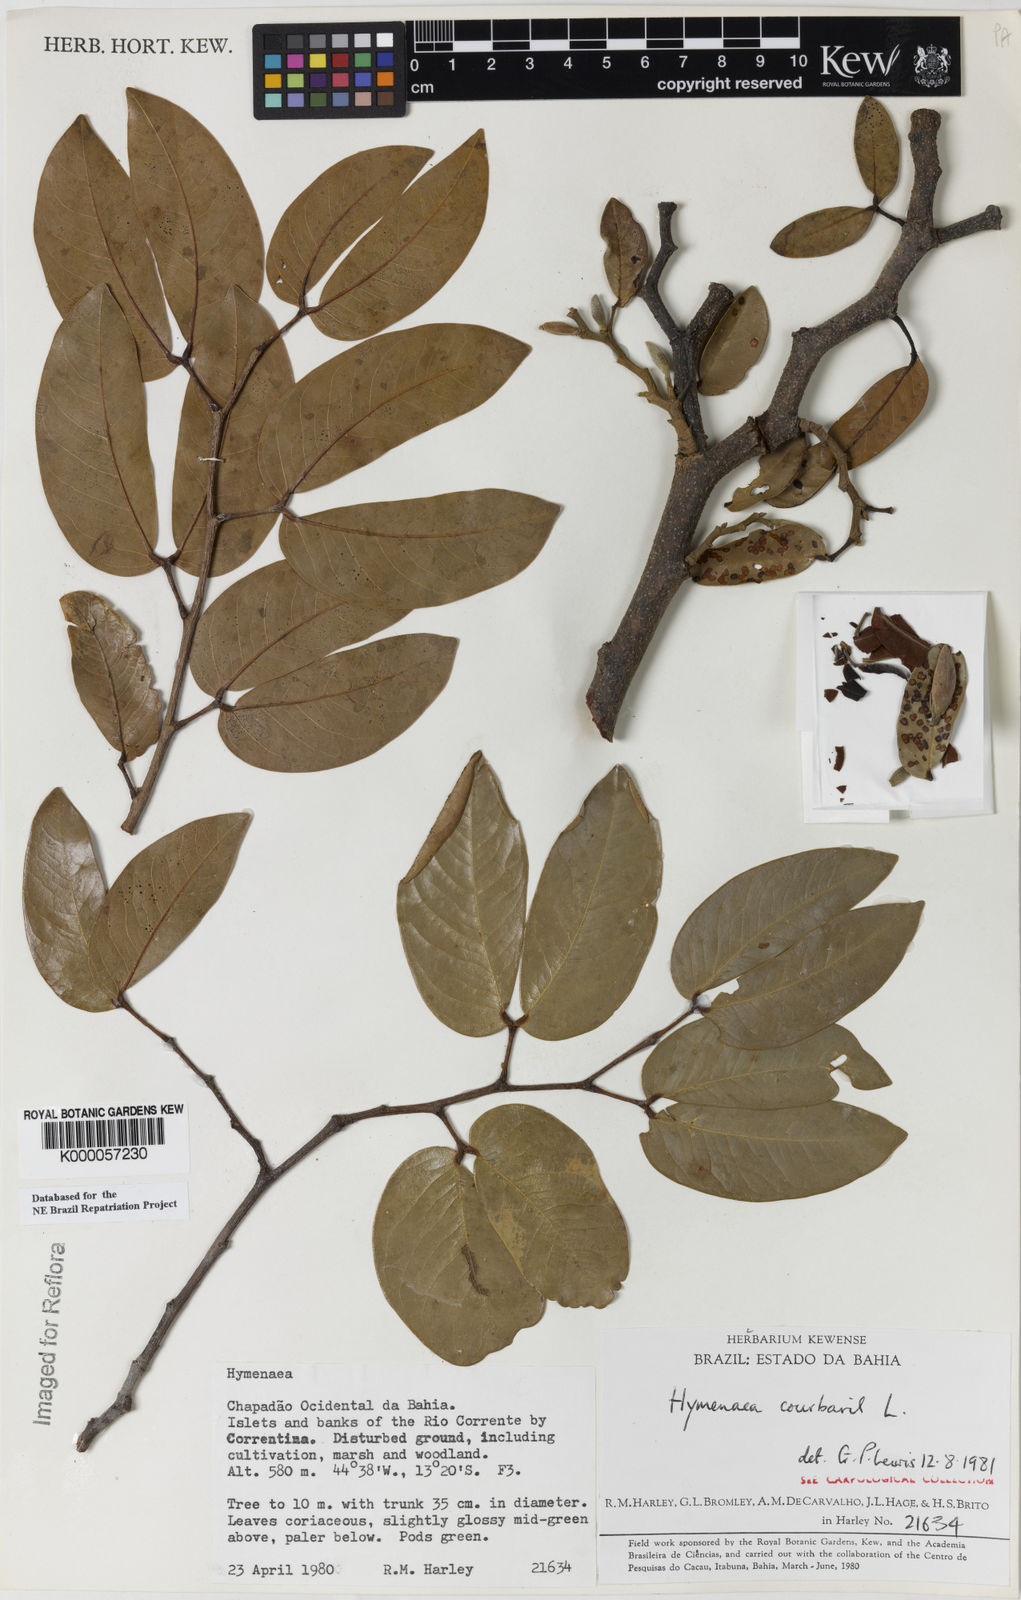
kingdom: Plantae
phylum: Tracheophyta
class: Magnoliopsida
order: Fabales
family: Fabaceae
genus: Hymenaea
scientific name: Hymenaea courbaril
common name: Brazilian copal
